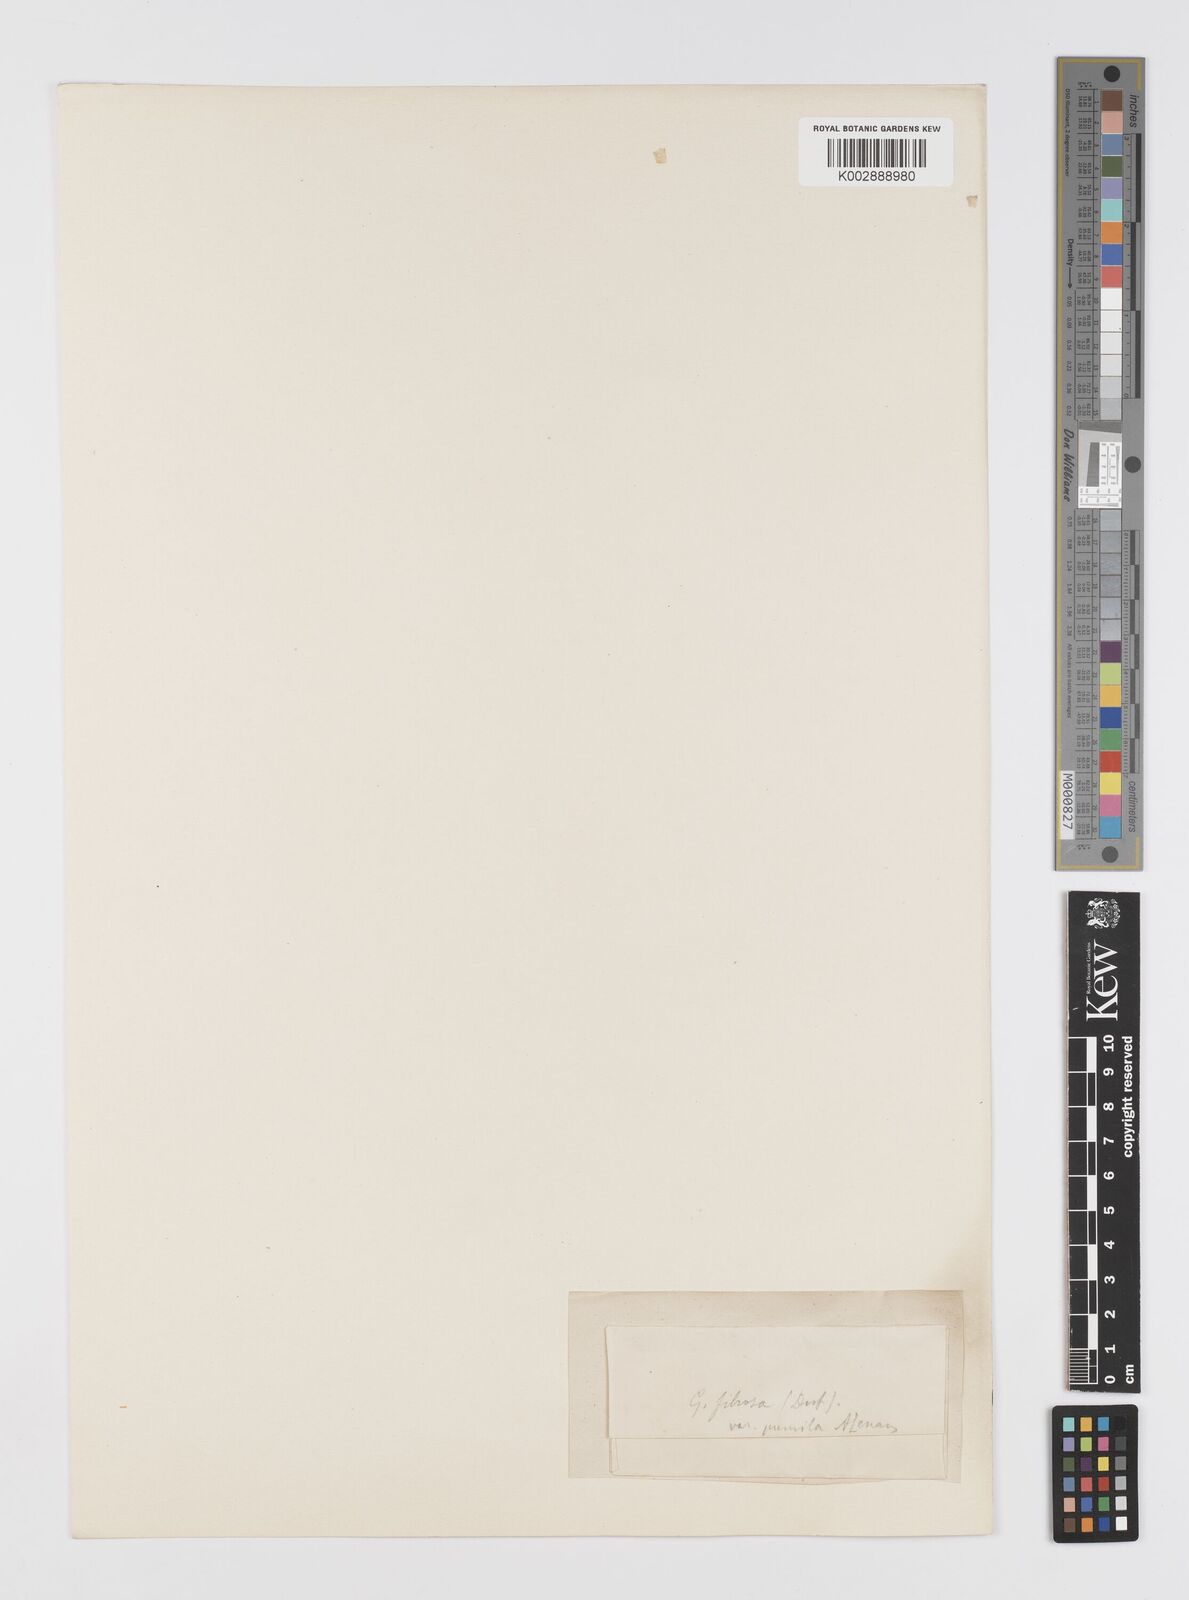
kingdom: Plantae
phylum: Tracheophyta
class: Liliopsida
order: Liliales
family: Liliaceae
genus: Gagea
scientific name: Gagea fibrosa
